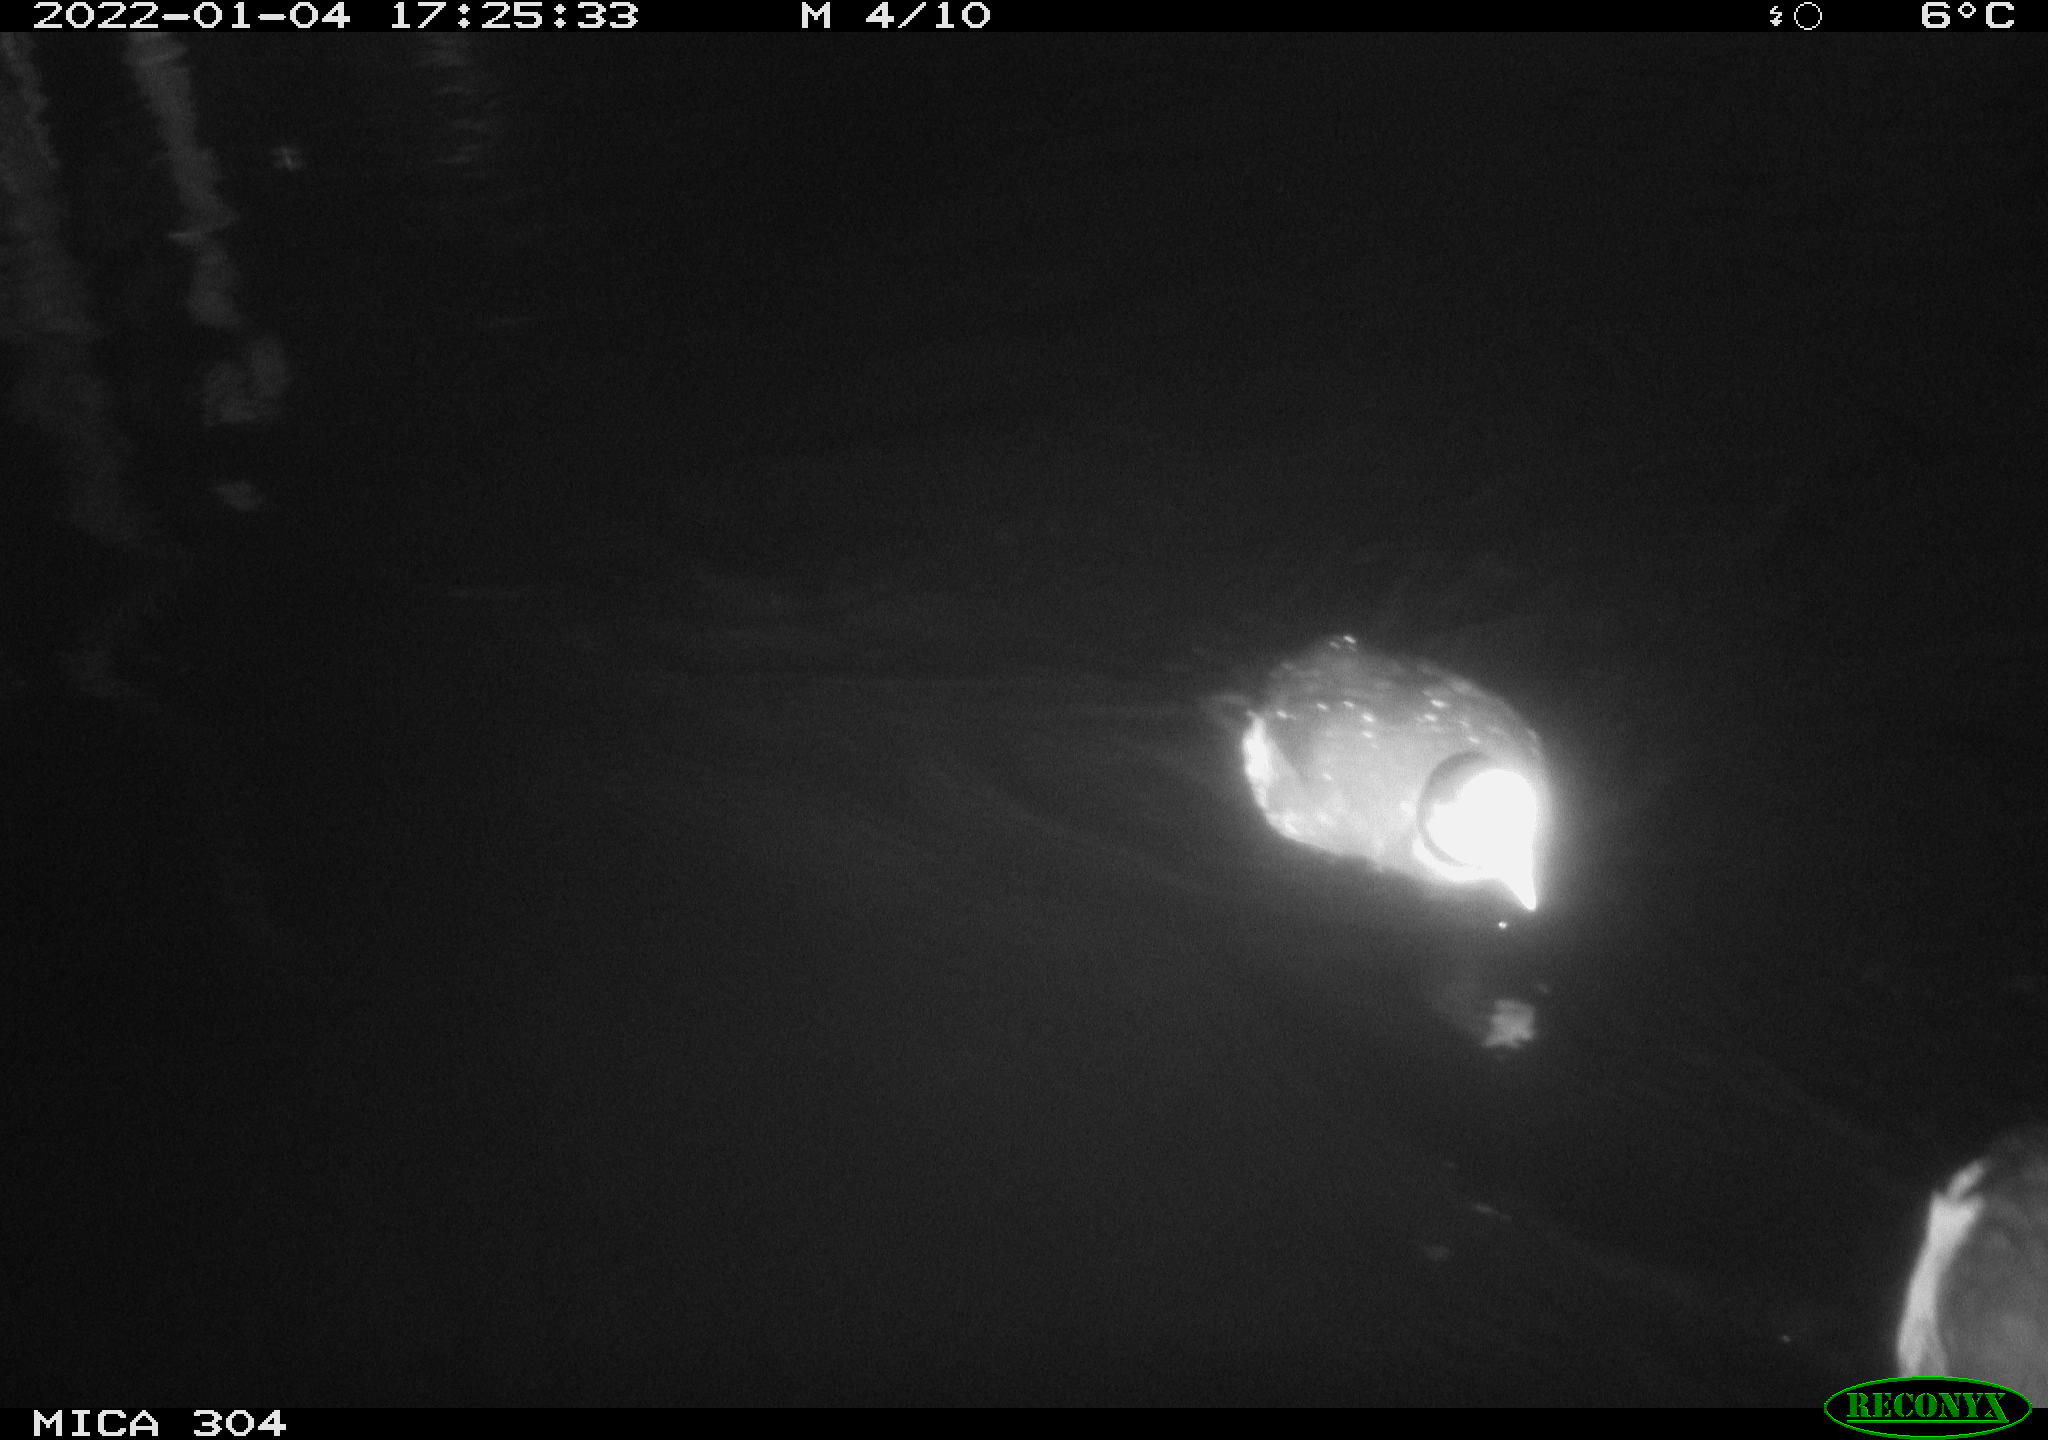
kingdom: Animalia
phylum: Chordata
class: Aves
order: Anseriformes
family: Anatidae
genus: Anas
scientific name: Anas
